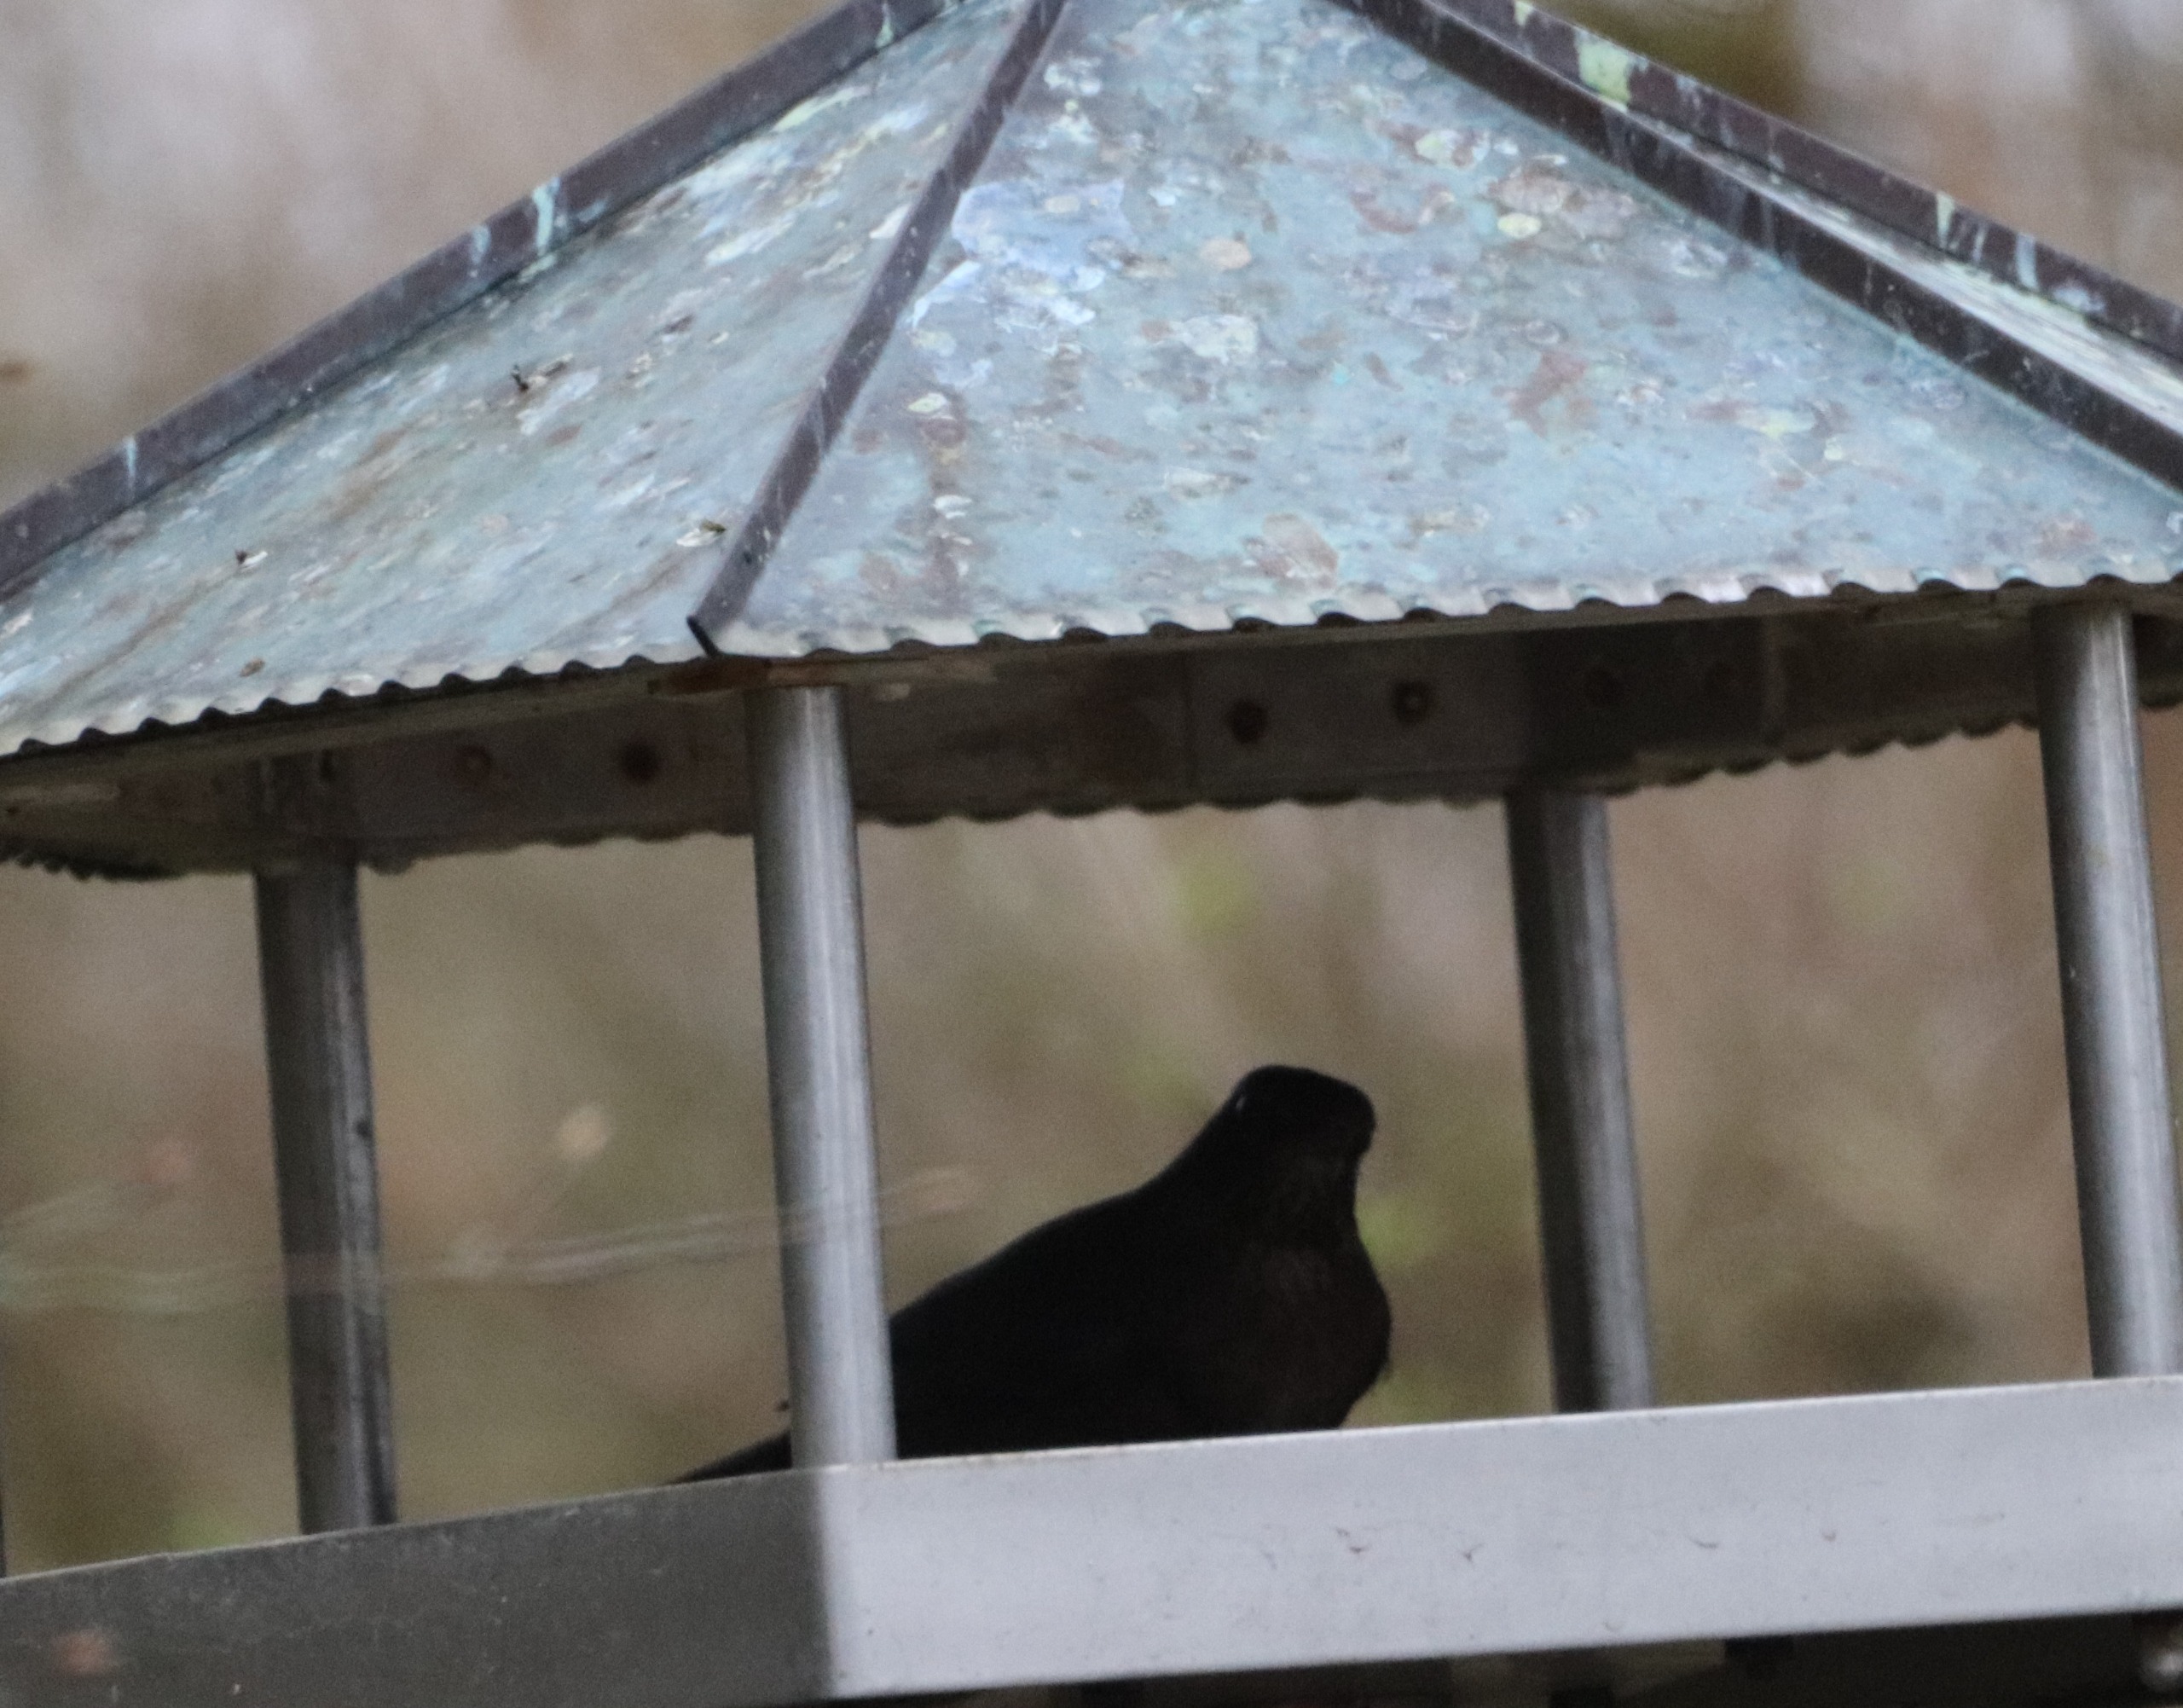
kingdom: Animalia
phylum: Chordata
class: Aves
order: Passeriformes
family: Turdidae
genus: Turdus
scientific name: Turdus merula
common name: Solsort
